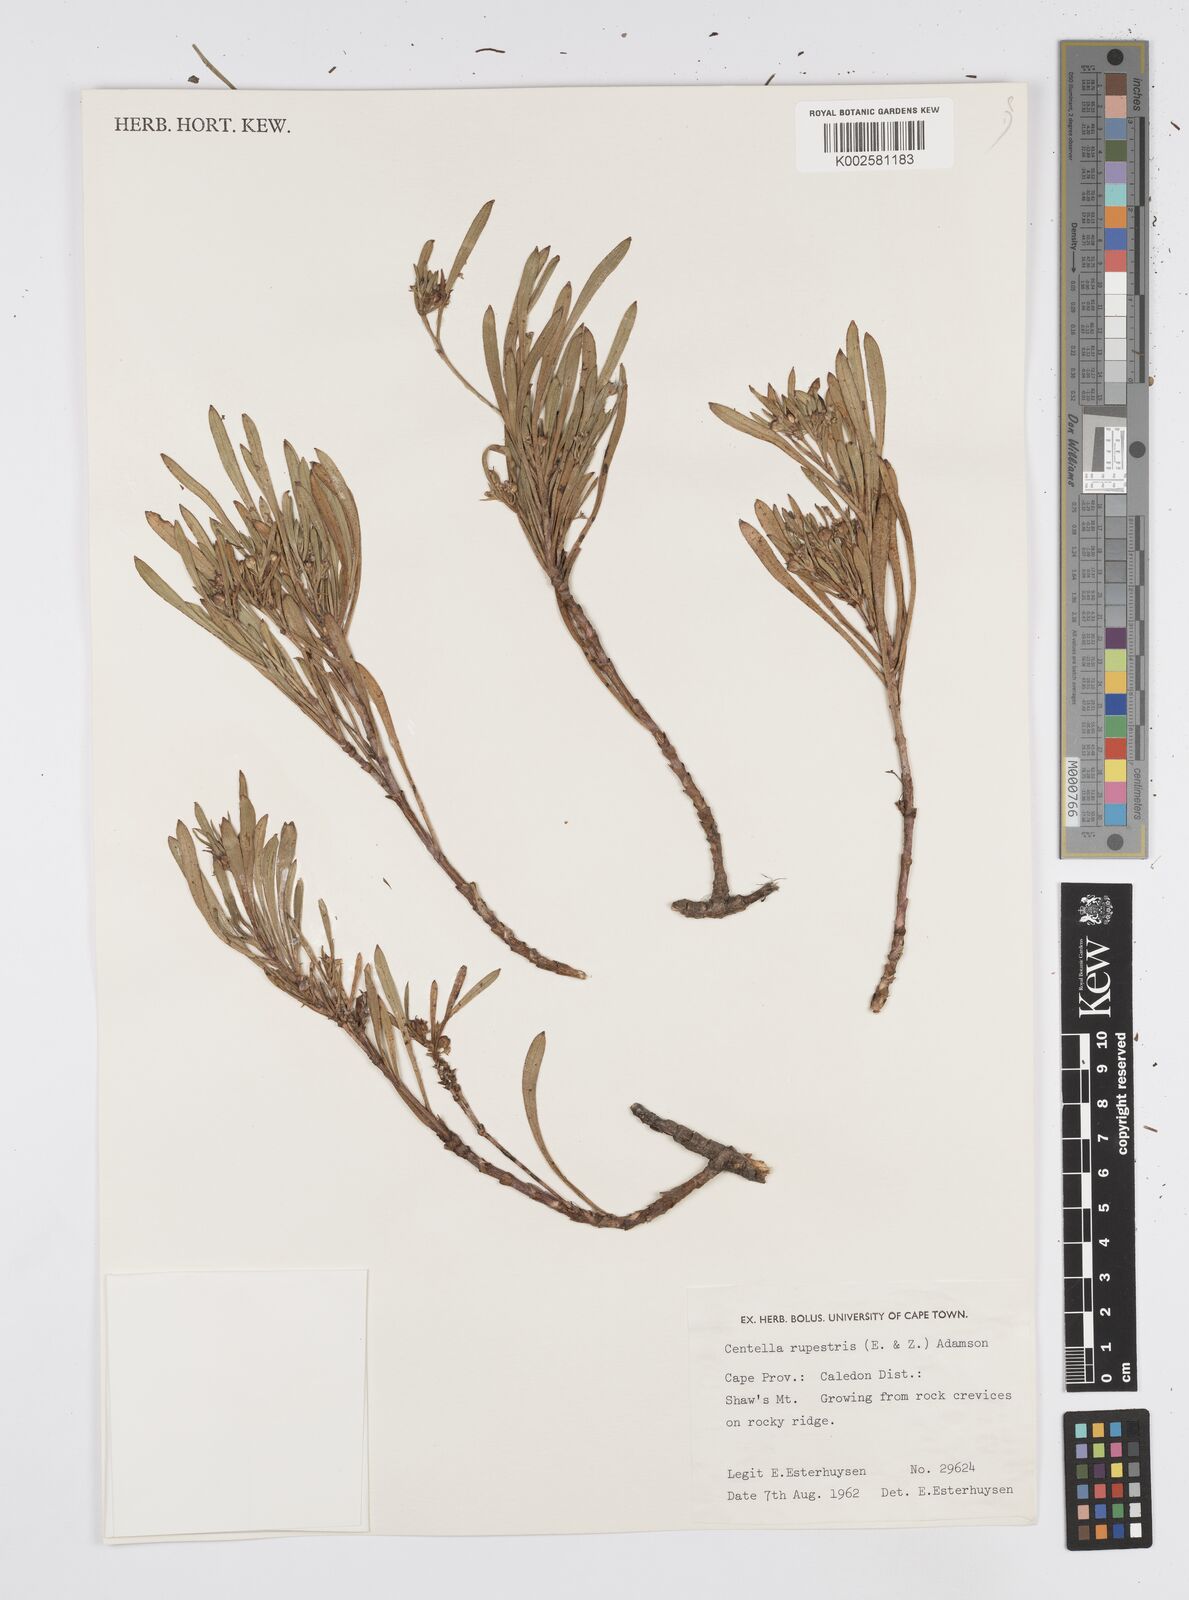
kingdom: Plantae
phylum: Tracheophyta
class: Magnoliopsida
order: Apiales
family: Apiaceae
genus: Centella
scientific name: Centella rupestris
